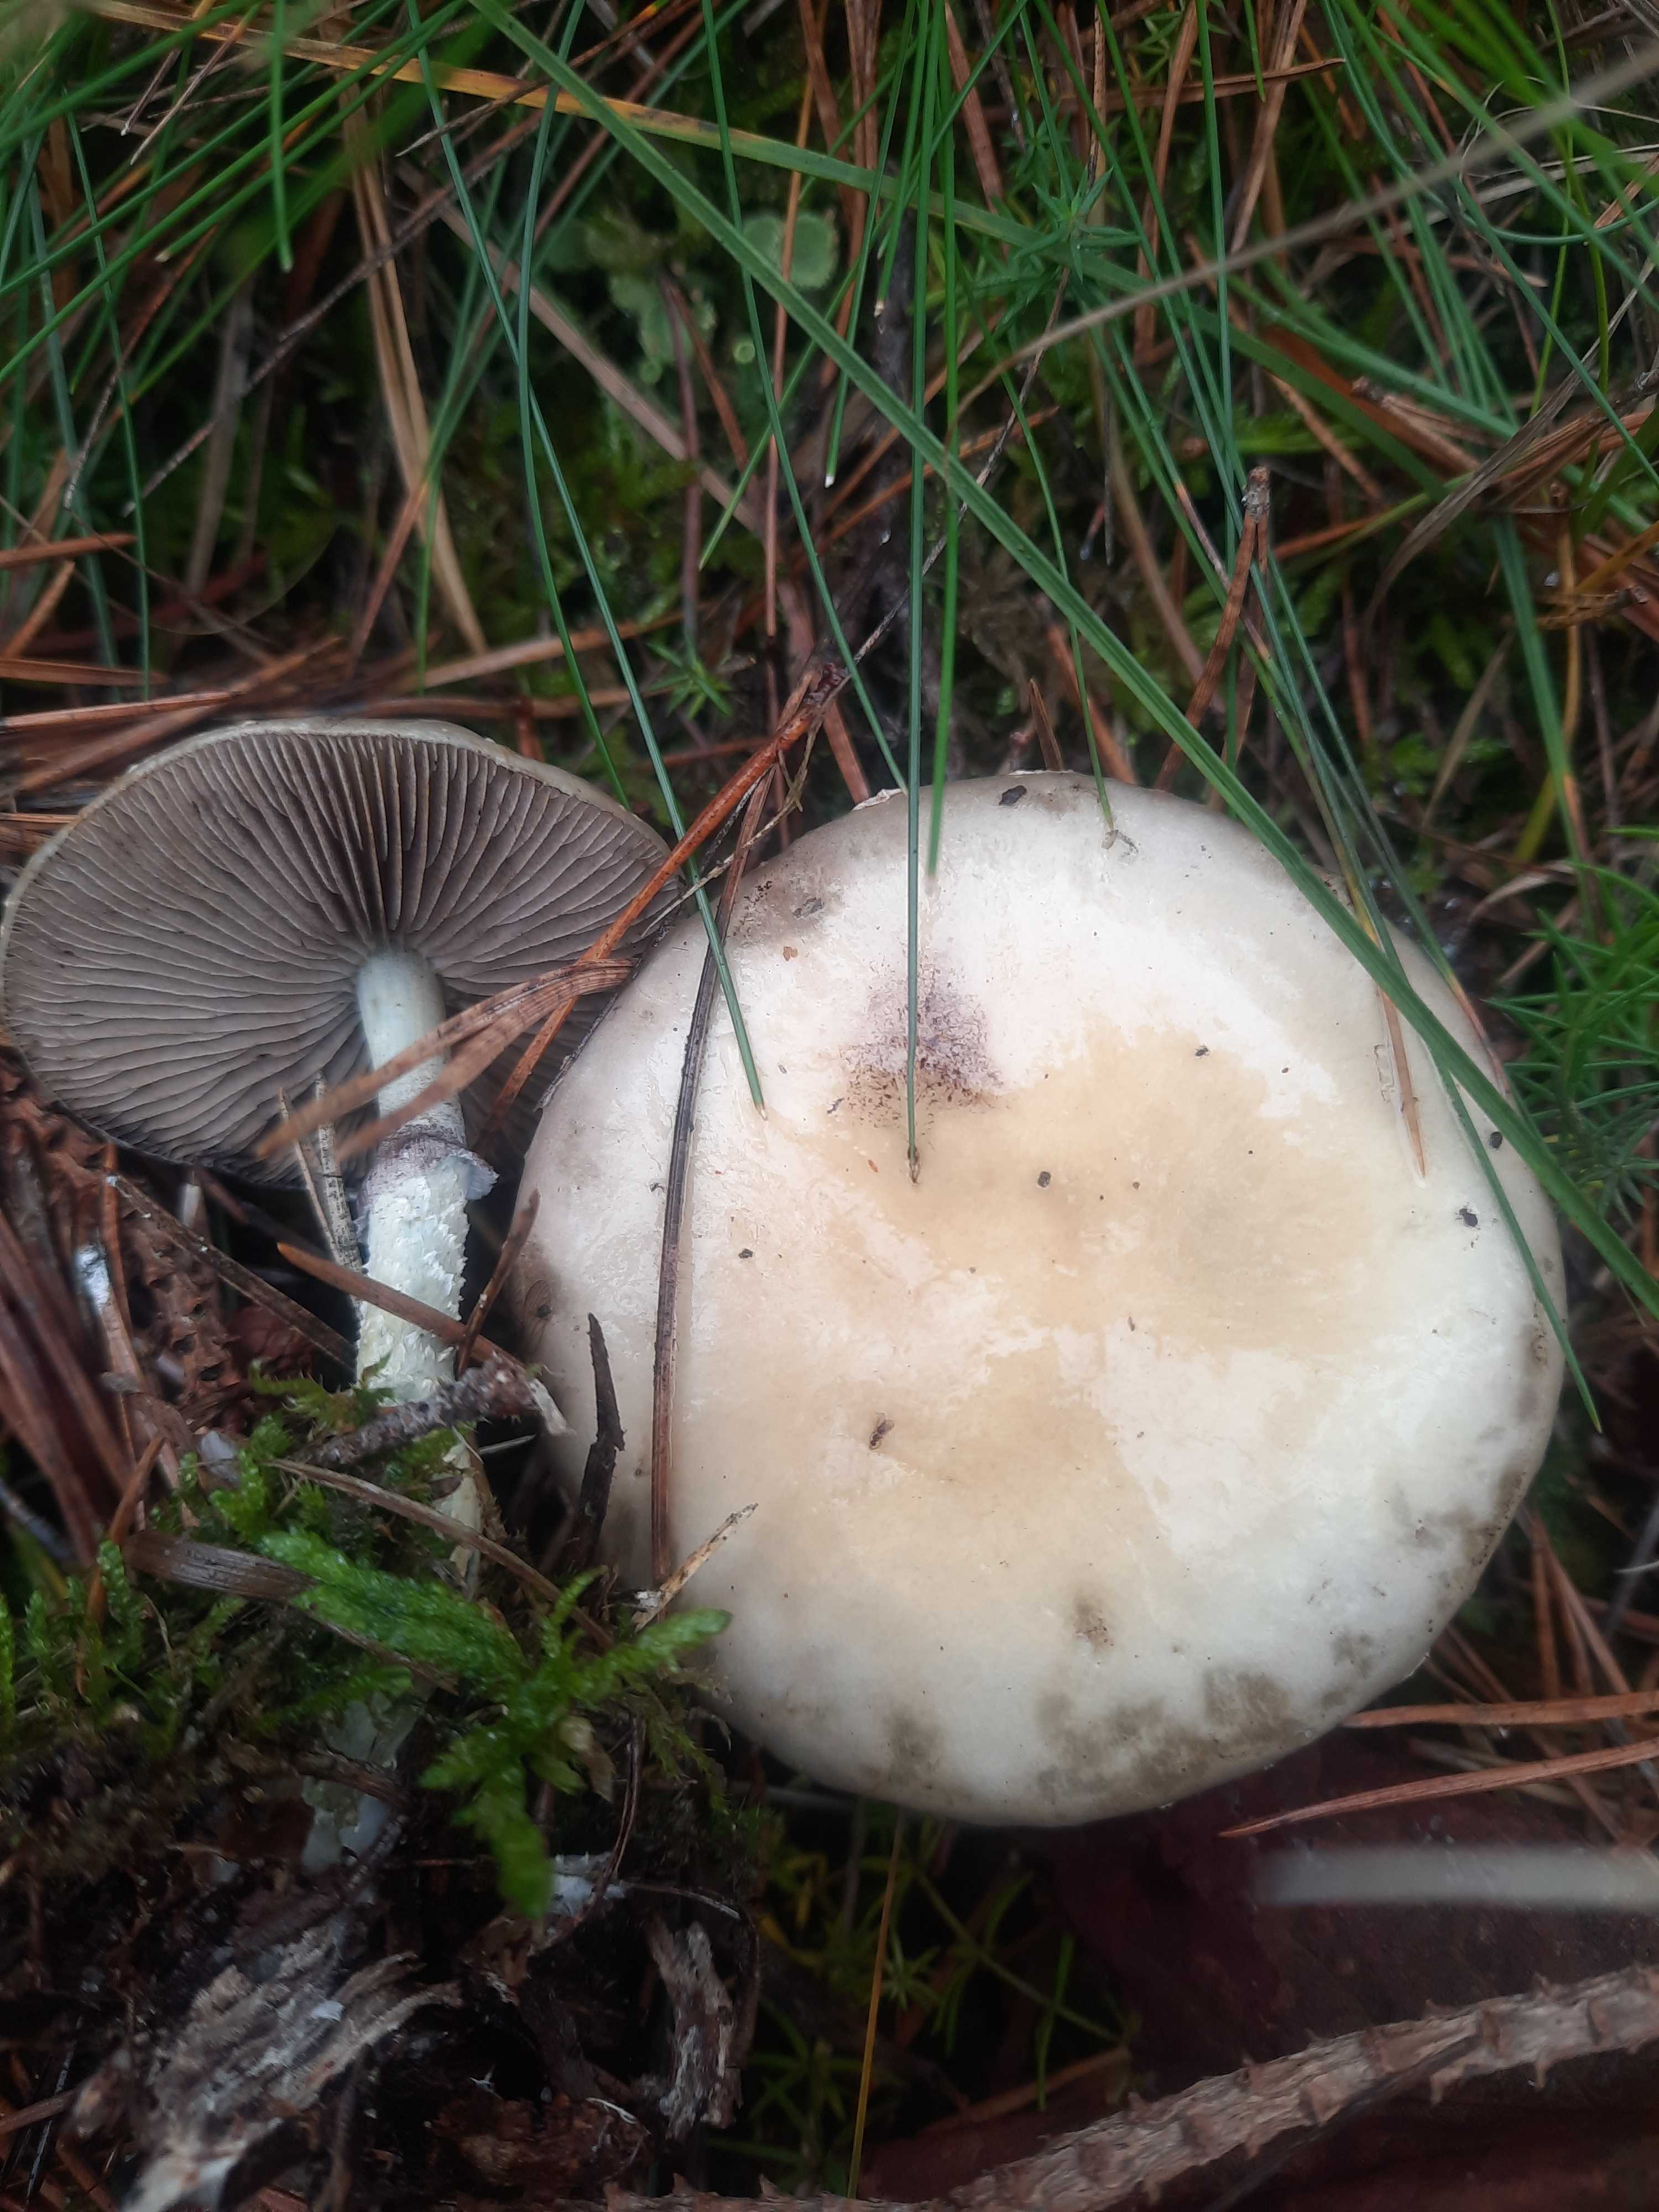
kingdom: Fungi
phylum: Basidiomycota
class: Agaricomycetes
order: Agaricales
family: Strophariaceae
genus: Stropharia
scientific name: Stropharia aeruginosa
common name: spanskgrøn bredblad
